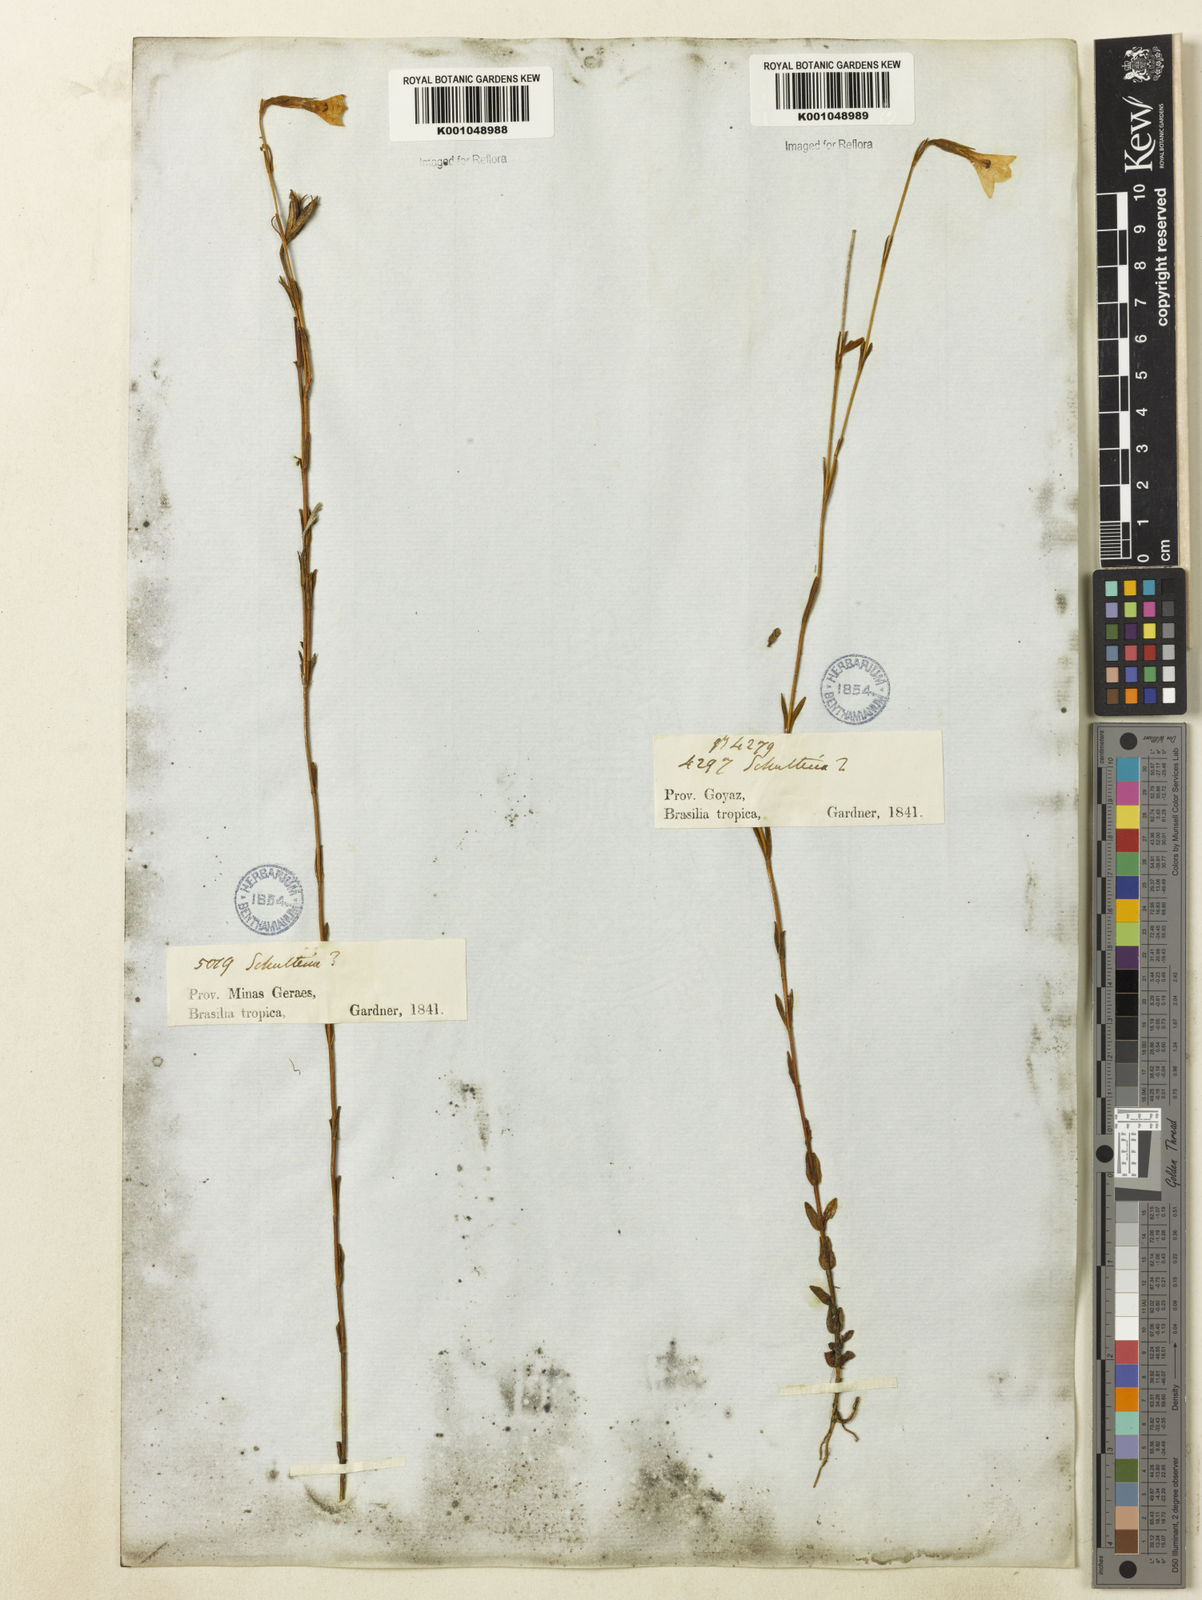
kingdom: Plantae
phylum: Tracheophyta
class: Magnoliopsida
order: Gentianales
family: Gentianaceae
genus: Schultesia
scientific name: Schultesia aptera
